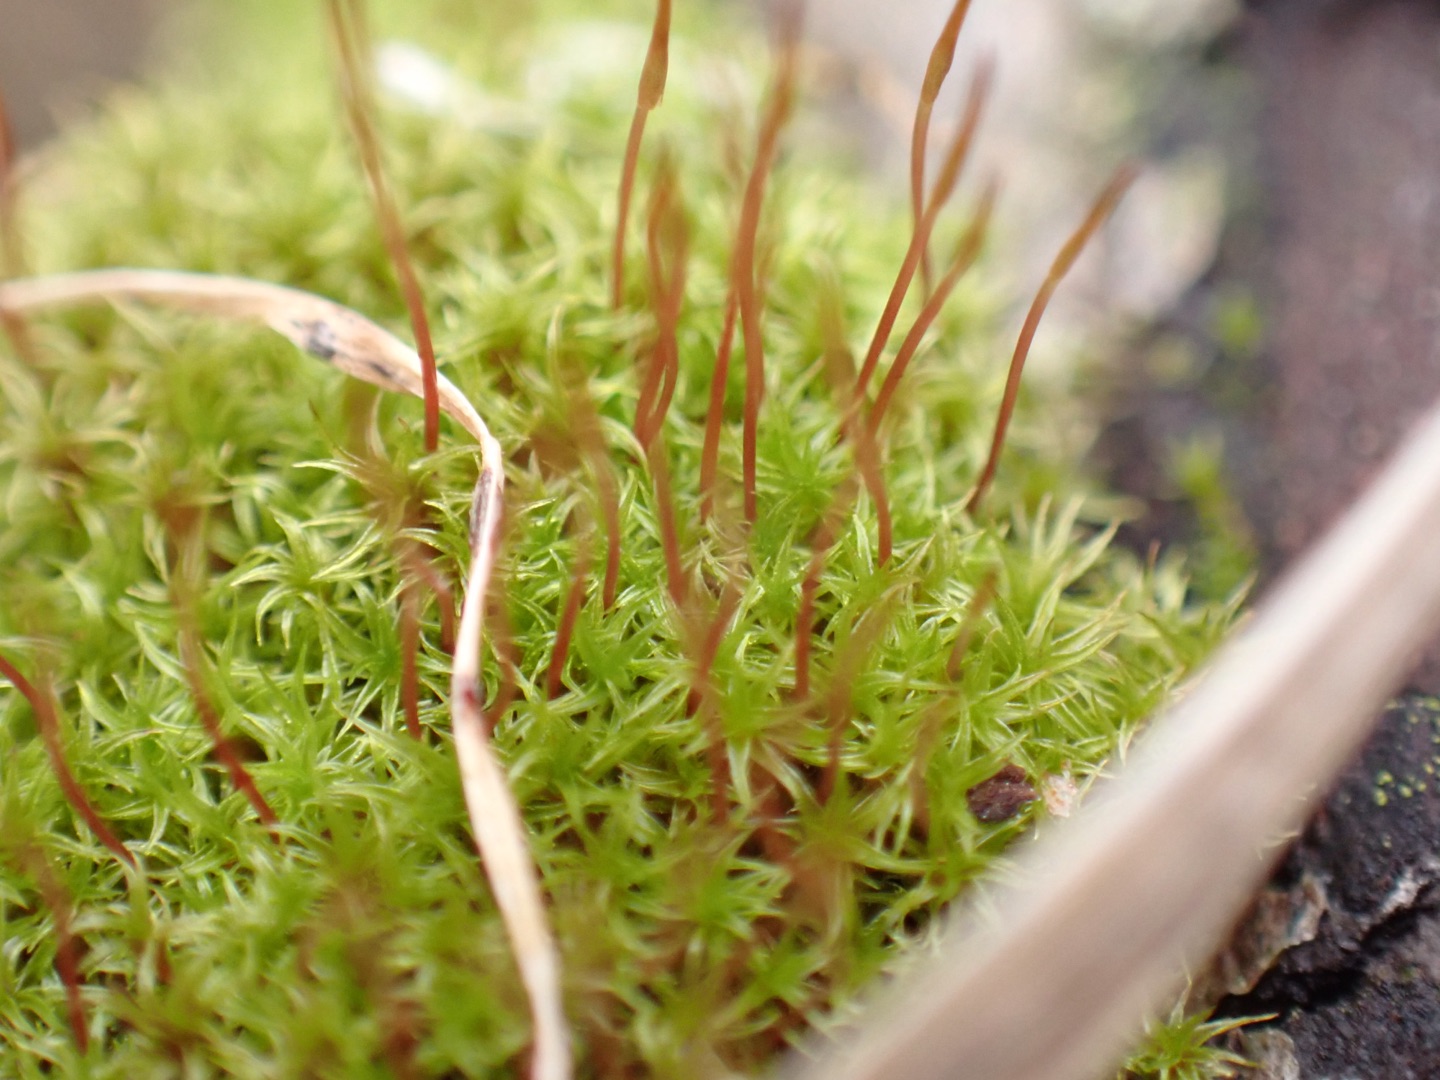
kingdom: Plantae
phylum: Bryophyta
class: Bryopsida
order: Dicranales
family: Ditrichaceae
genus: Ceratodon
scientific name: Ceratodon purpureus
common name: Rød horntand
